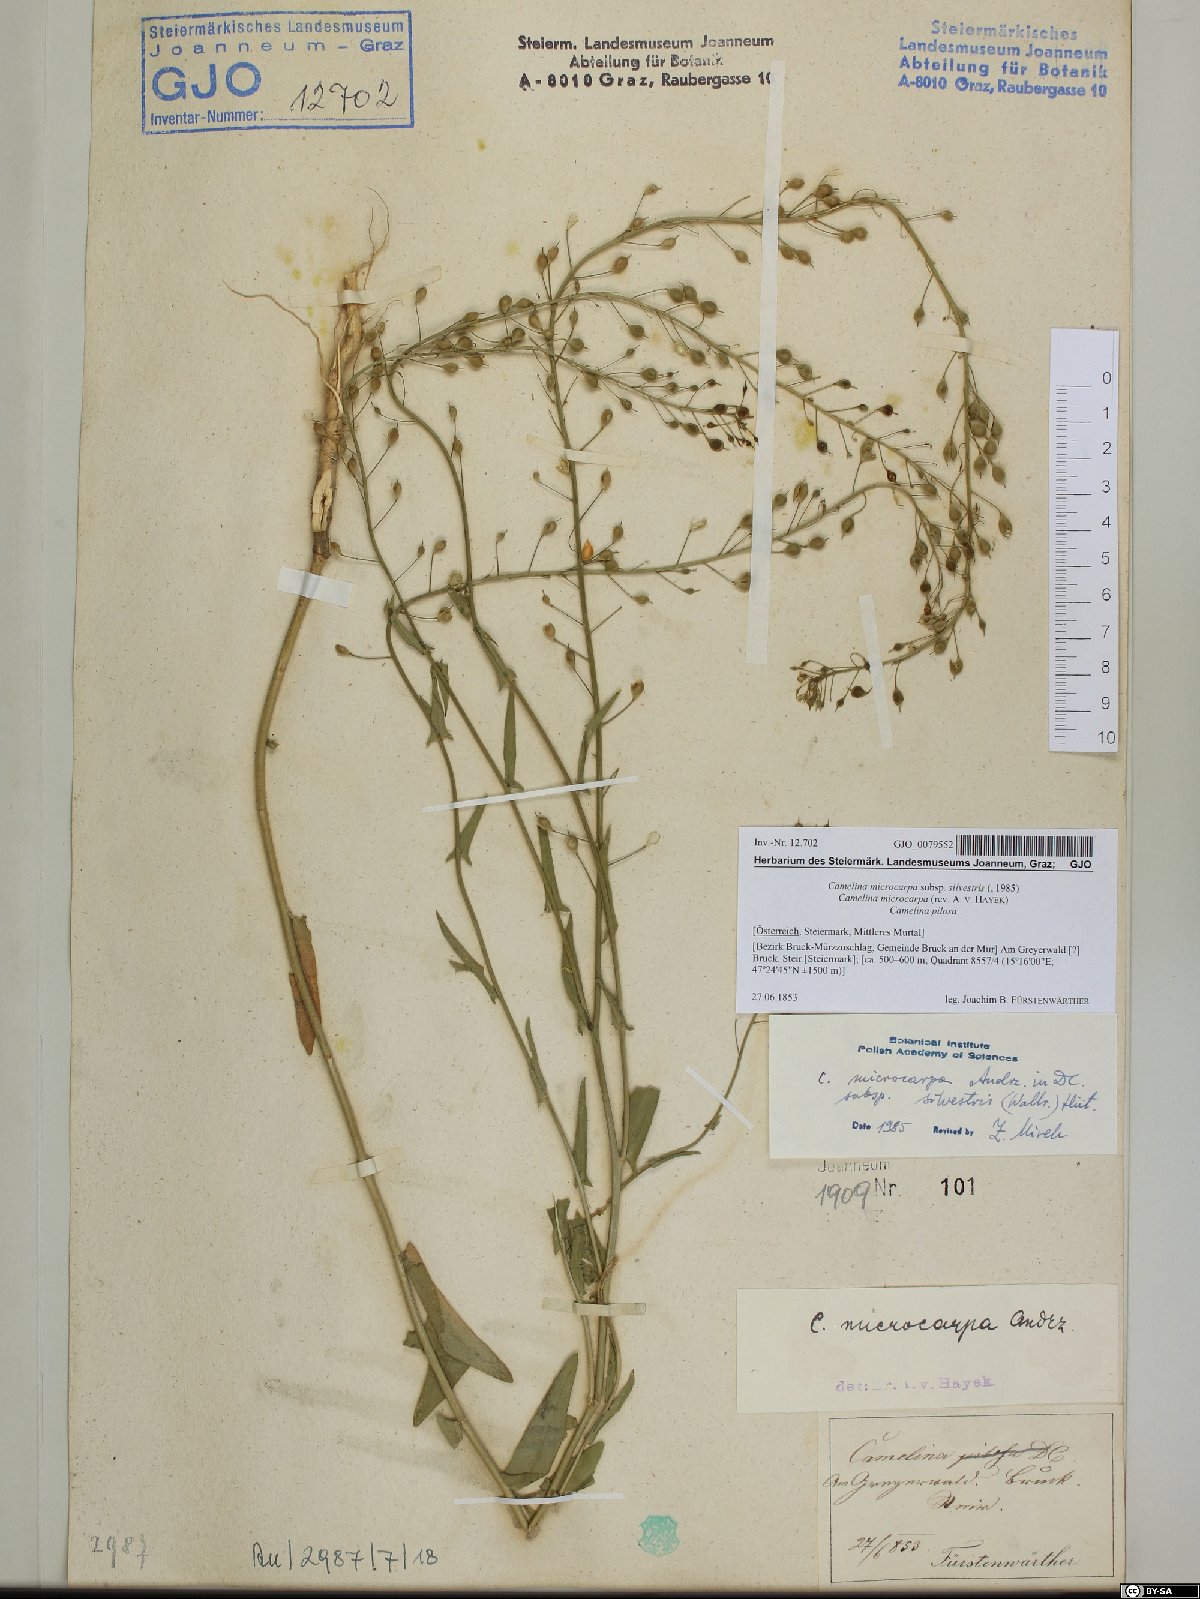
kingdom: Plantae
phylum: Tracheophyta
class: Magnoliopsida
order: Brassicales
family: Brassicaceae
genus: Camelina
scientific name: Camelina microcarpa
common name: Lesser gold-of-pleasure
